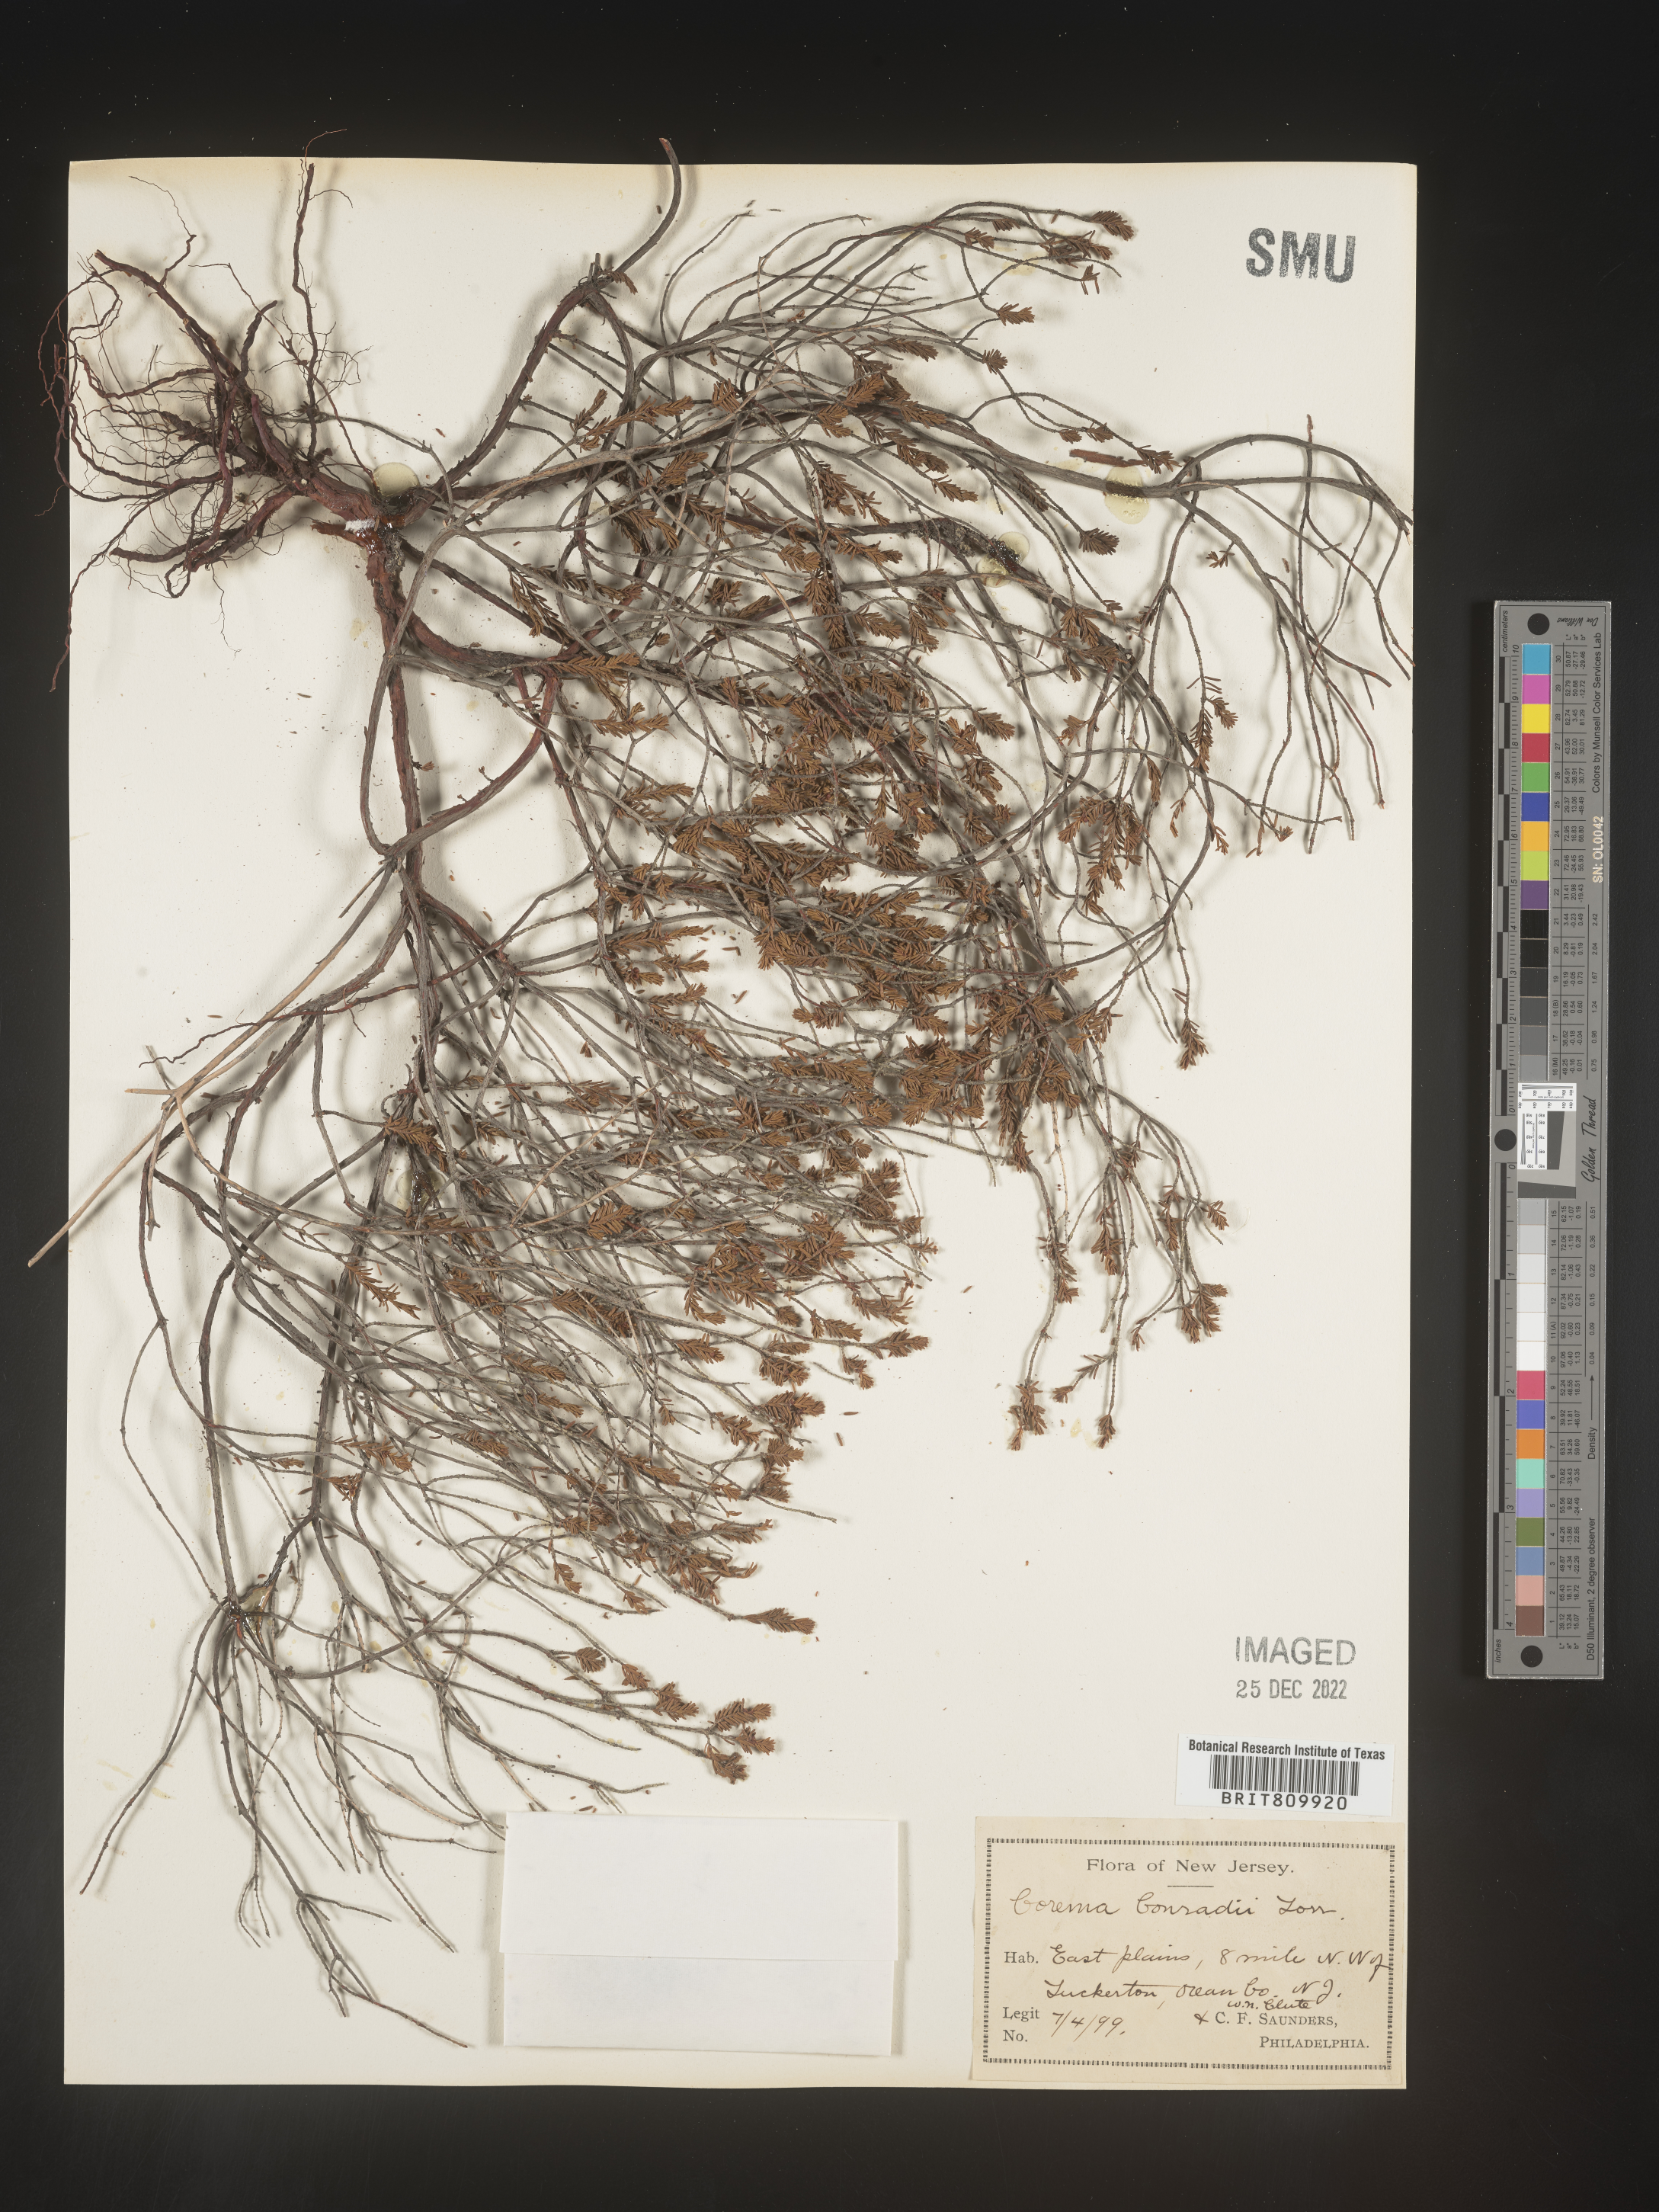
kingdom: Plantae
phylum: Tracheophyta
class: Magnoliopsida
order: Ericales
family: Ericaceae
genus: Corema
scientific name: Corema
